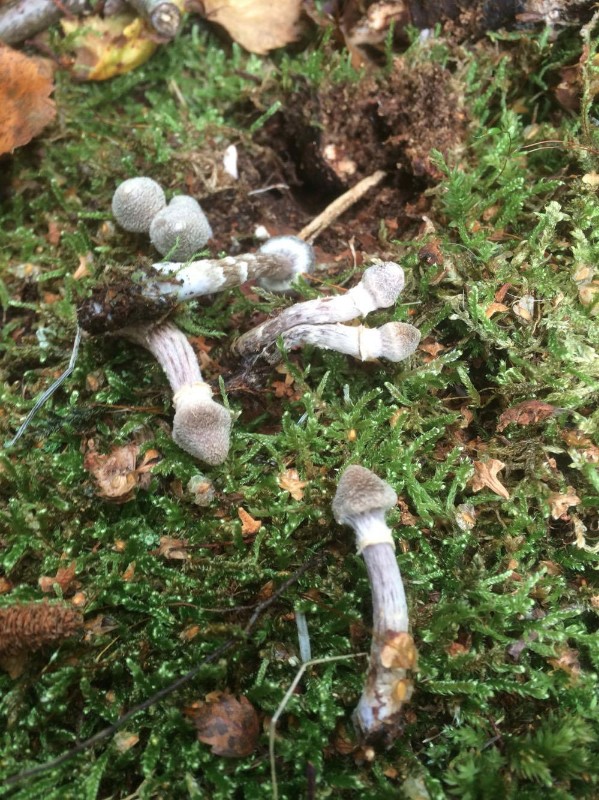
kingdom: Fungi
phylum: Basidiomycota
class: Agaricomycetes
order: Agaricales
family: Cortinariaceae
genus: Cortinarius
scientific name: Cortinarius
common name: pelargonie-slørhat
